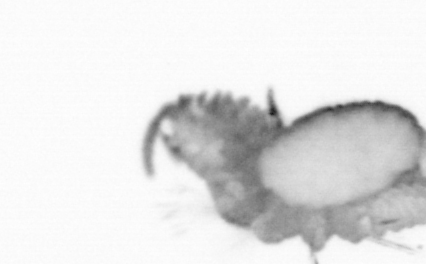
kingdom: Animalia
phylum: Annelida
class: Polychaeta
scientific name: Polychaeta
